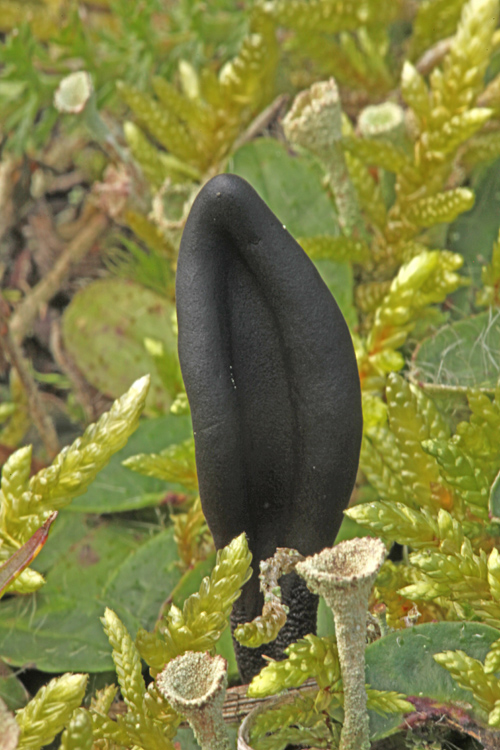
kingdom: Fungi
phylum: Ascomycota
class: Geoglossomycetes
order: Geoglossales
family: Geoglossaceae
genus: Hemileucoglossum
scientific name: Hemileucoglossum elongatum
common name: småsporet jordtunge
